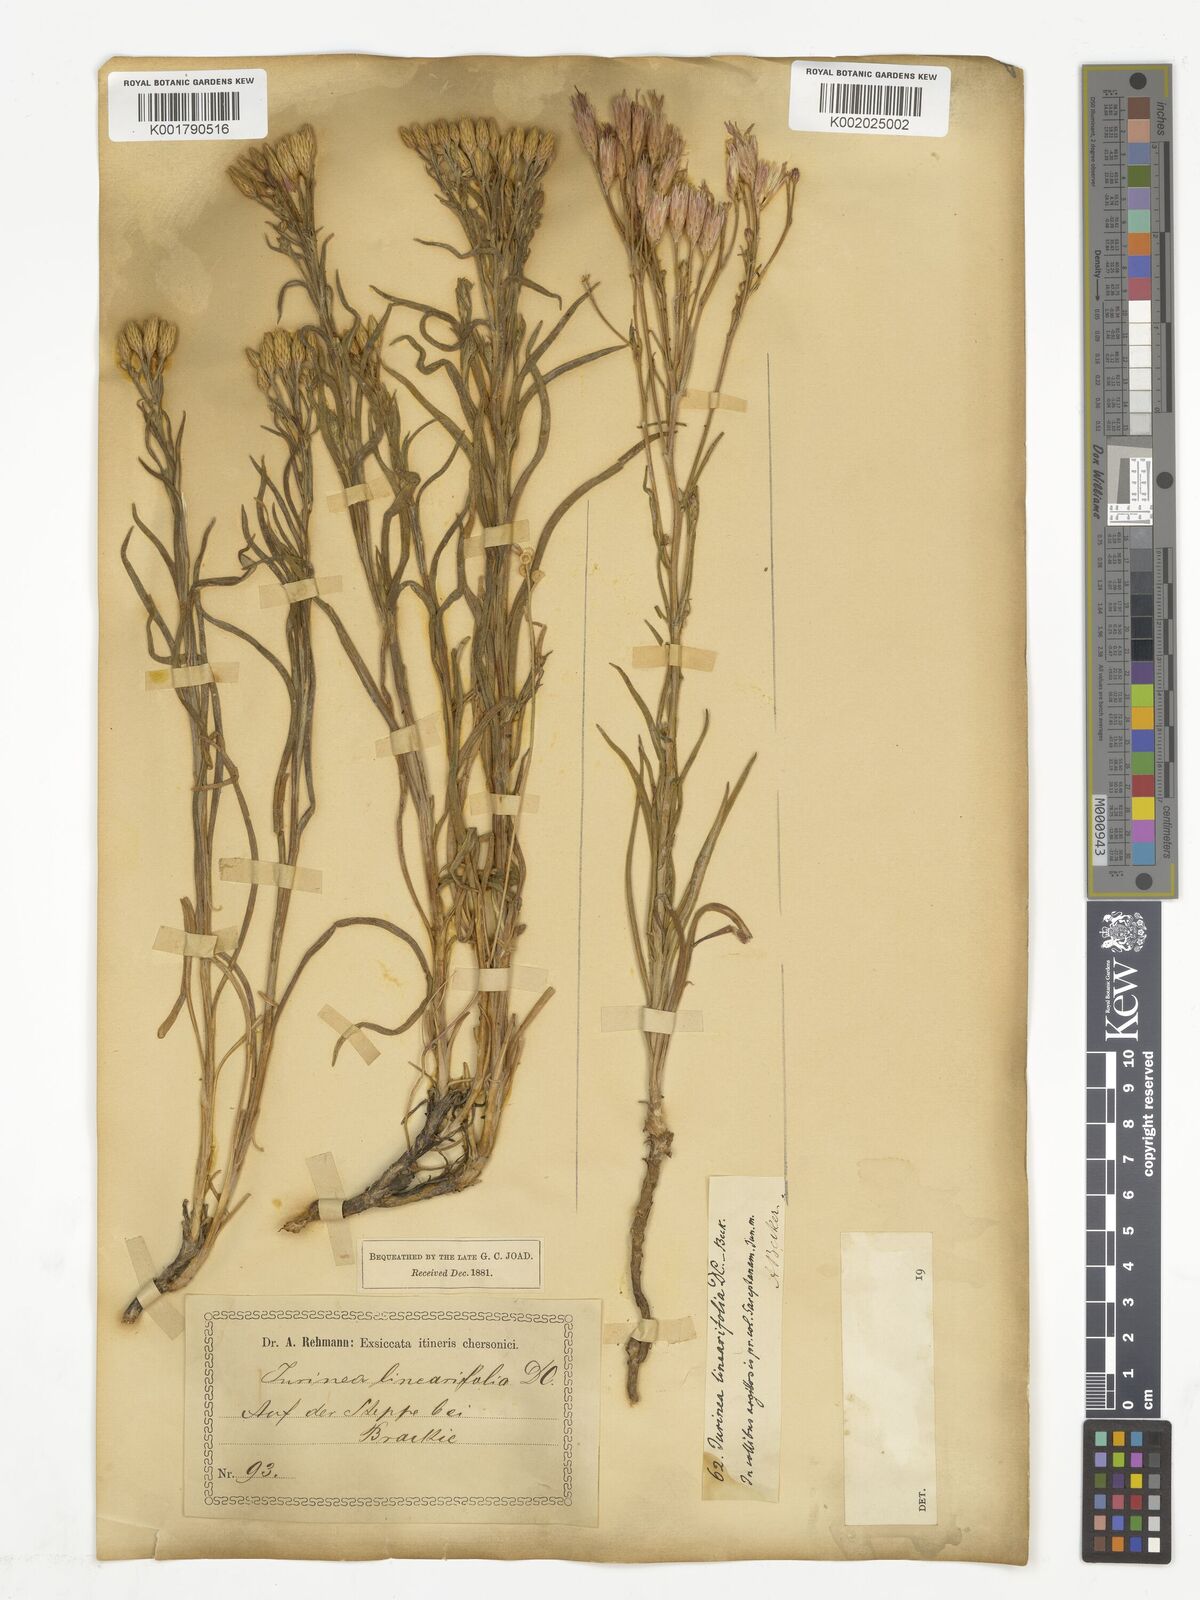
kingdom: Plantae
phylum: Tracheophyta
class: Magnoliopsida
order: Asterales
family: Asteraceae
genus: Jurinea
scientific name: Jurinea multiflora
